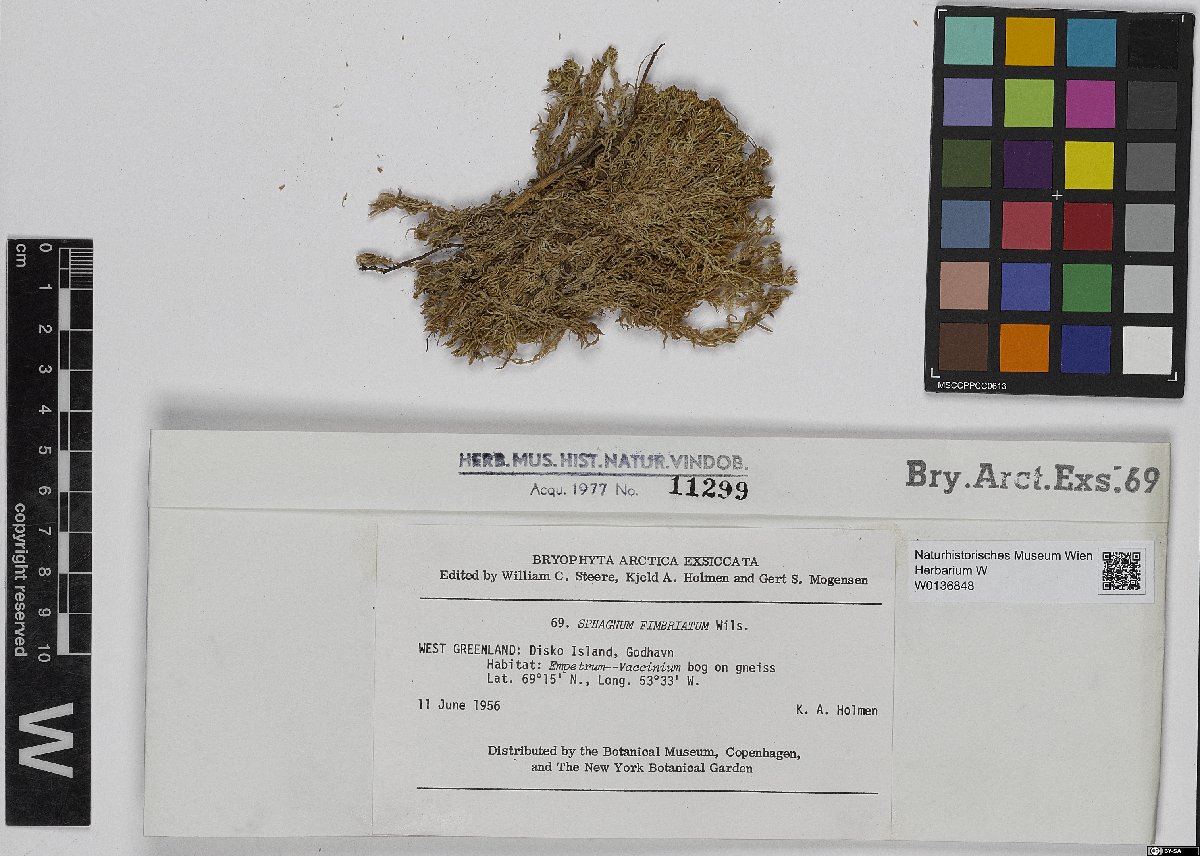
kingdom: Plantae
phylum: Bryophyta
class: Sphagnopsida
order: Sphagnales
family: Sphagnaceae
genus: Sphagnum
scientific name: Sphagnum fimbriatum
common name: Fringed peat moss
